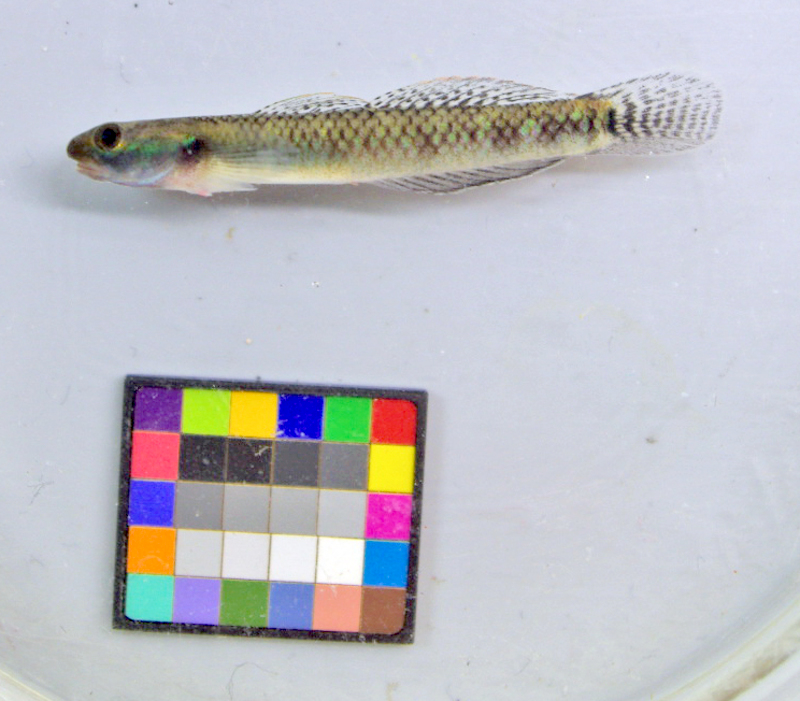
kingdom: Animalia
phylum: Chordata
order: Perciformes
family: Gobiidae
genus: Stiphodon
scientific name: Stiphodon atropurpureus
